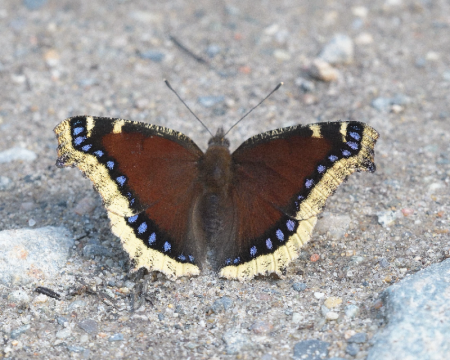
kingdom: Animalia
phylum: Arthropoda
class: Insecta
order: Lepidoptera
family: Nymphalidae
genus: Nymphalis
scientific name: Nymphalis antiopa
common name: Mourning Cloak
